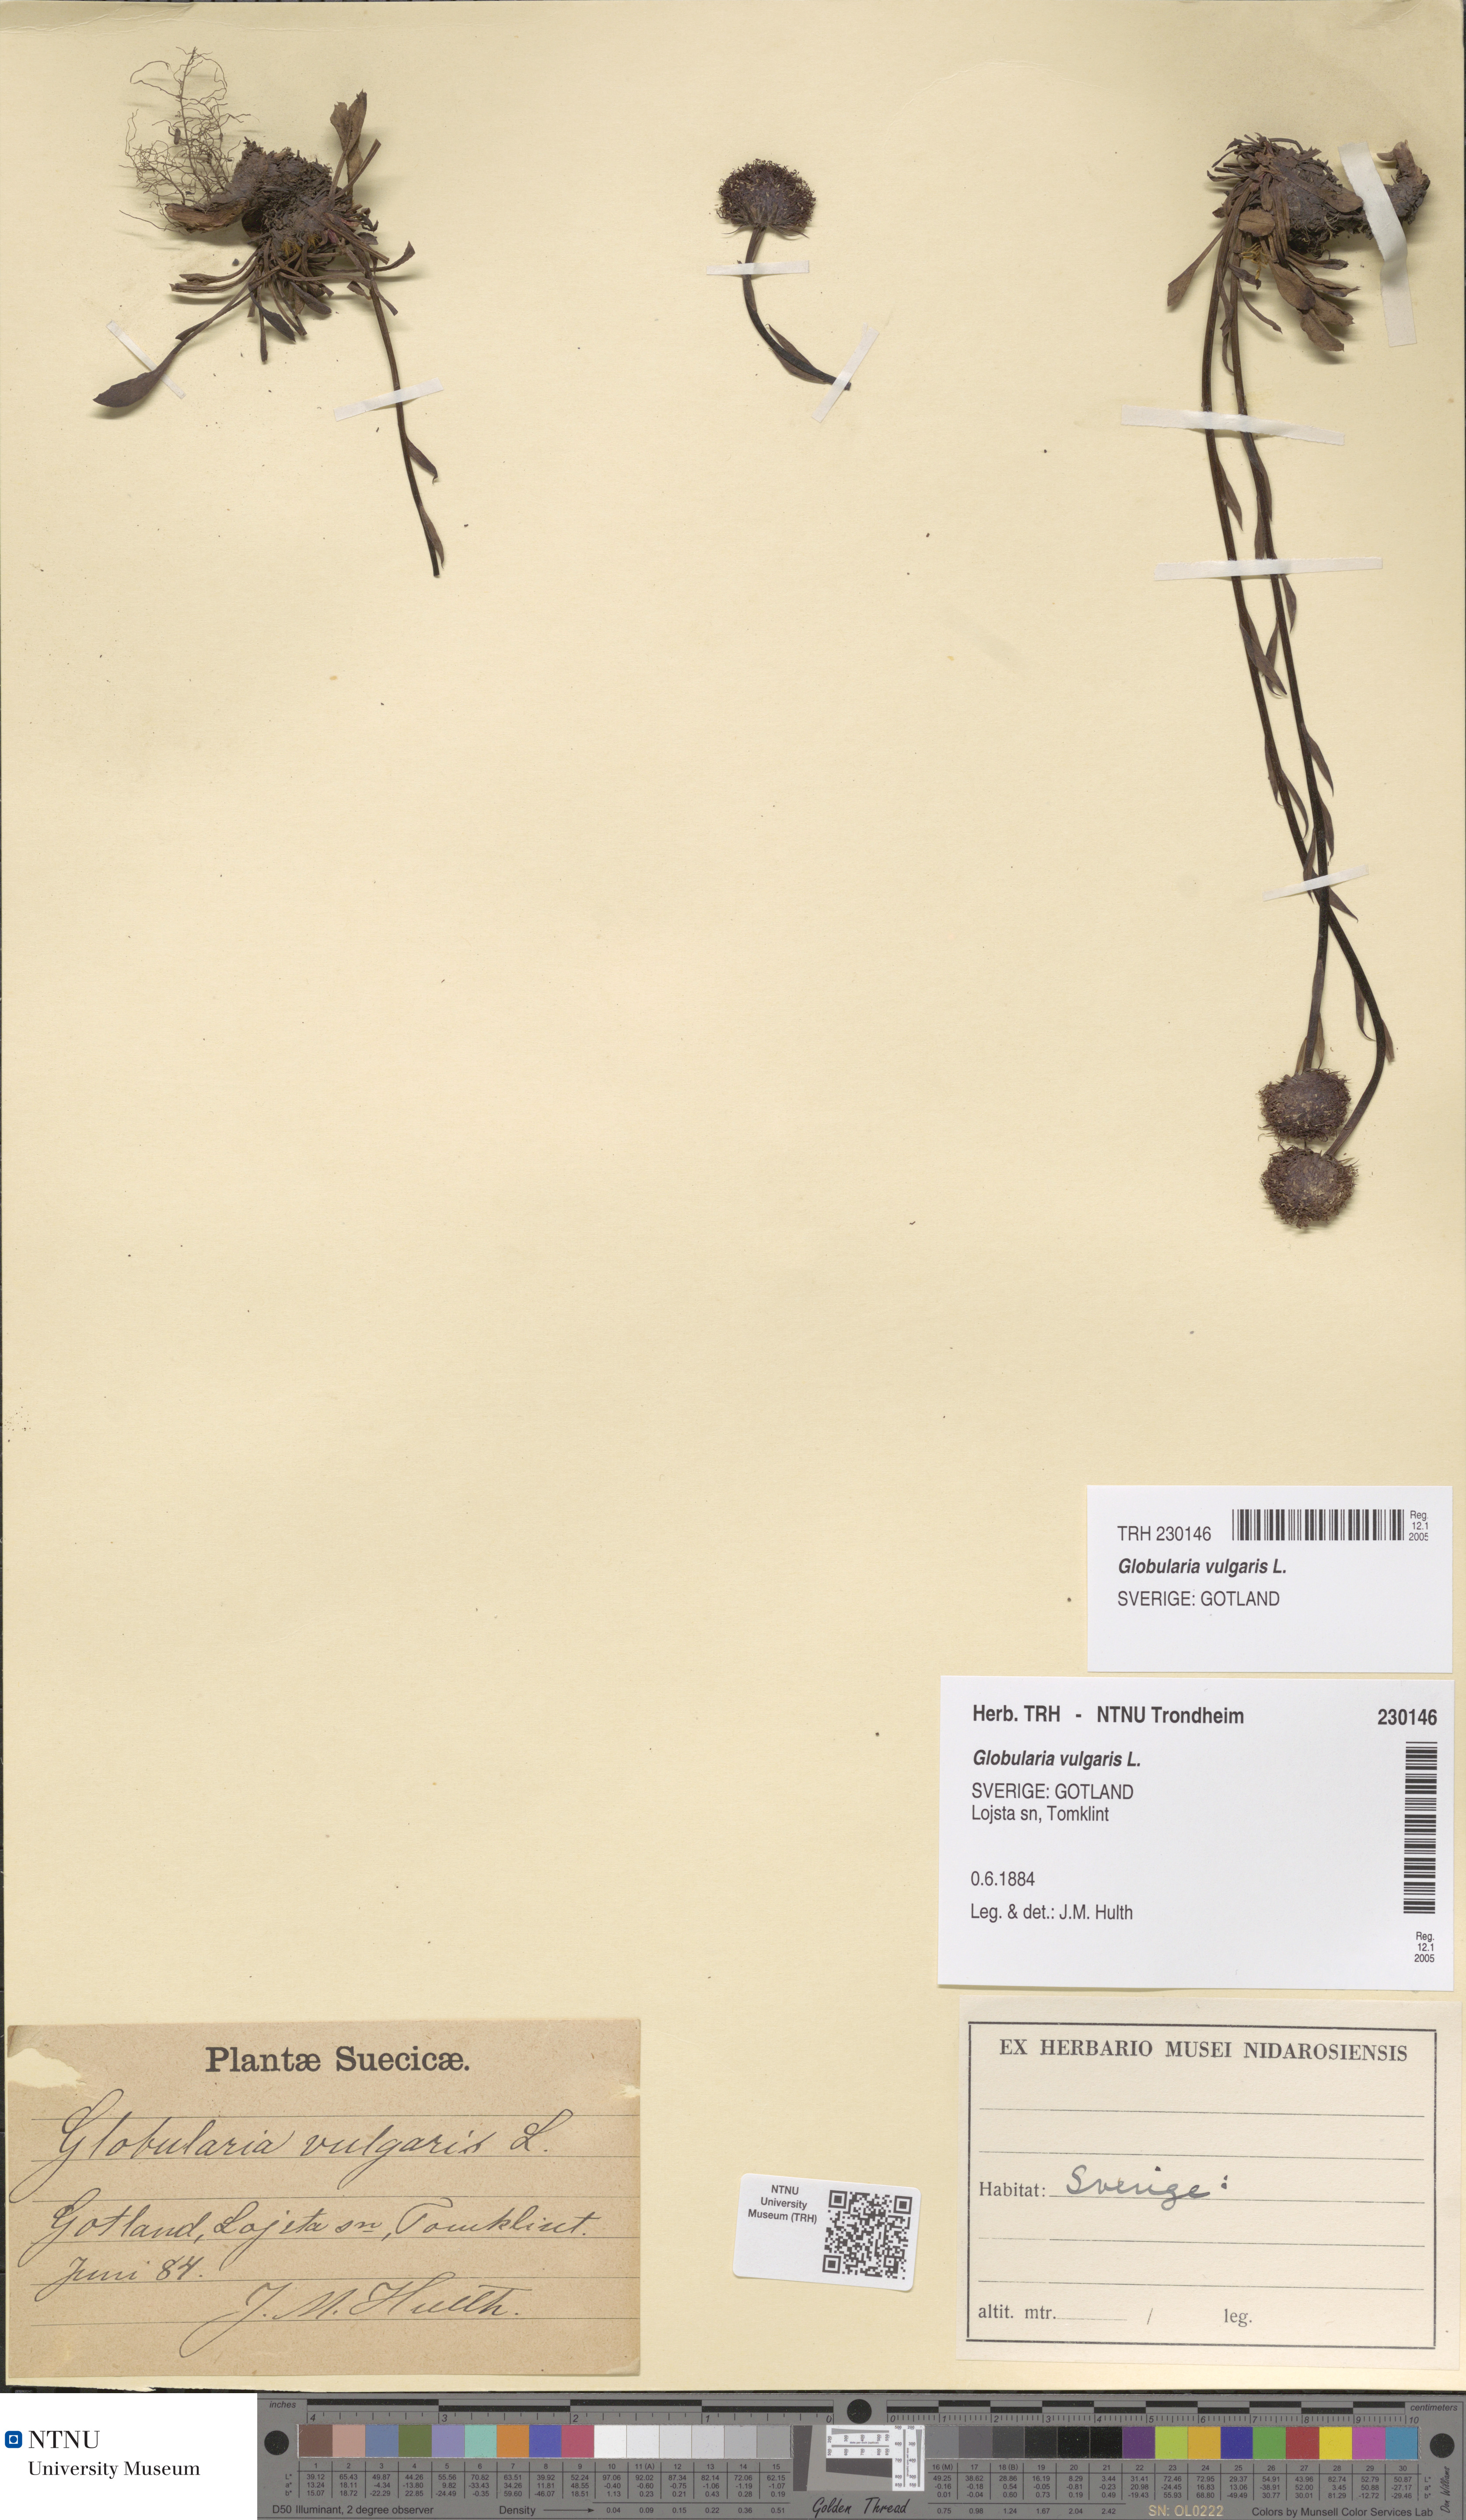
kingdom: Plantae
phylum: Tracheophyta
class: Magnoliopsida
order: Lamiales
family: Plantaginaceae
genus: Globularia
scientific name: Globularia vulgaris
